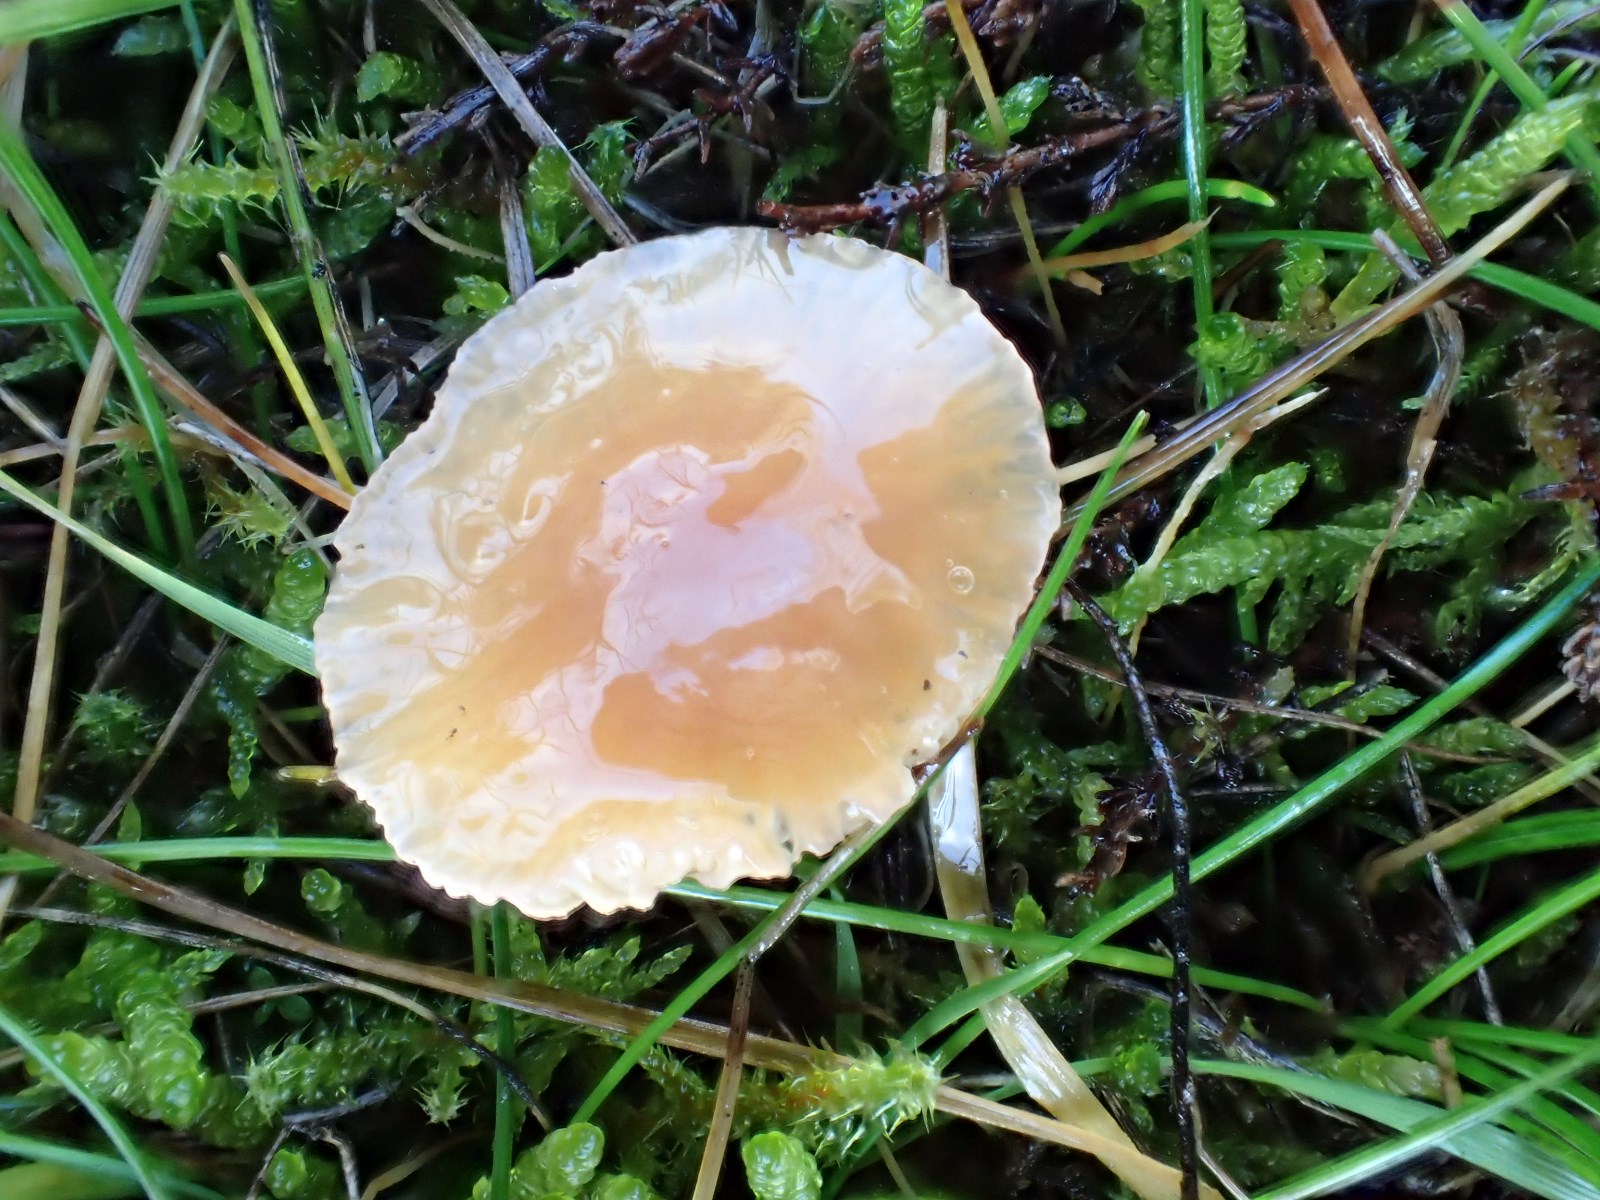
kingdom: Fungi
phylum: Basidiomycota
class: Agaricomycetes
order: Agaricales
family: Hygrophoraceae
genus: Gliophorus
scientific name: Gliophorus laetus
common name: brusk-vokshat
